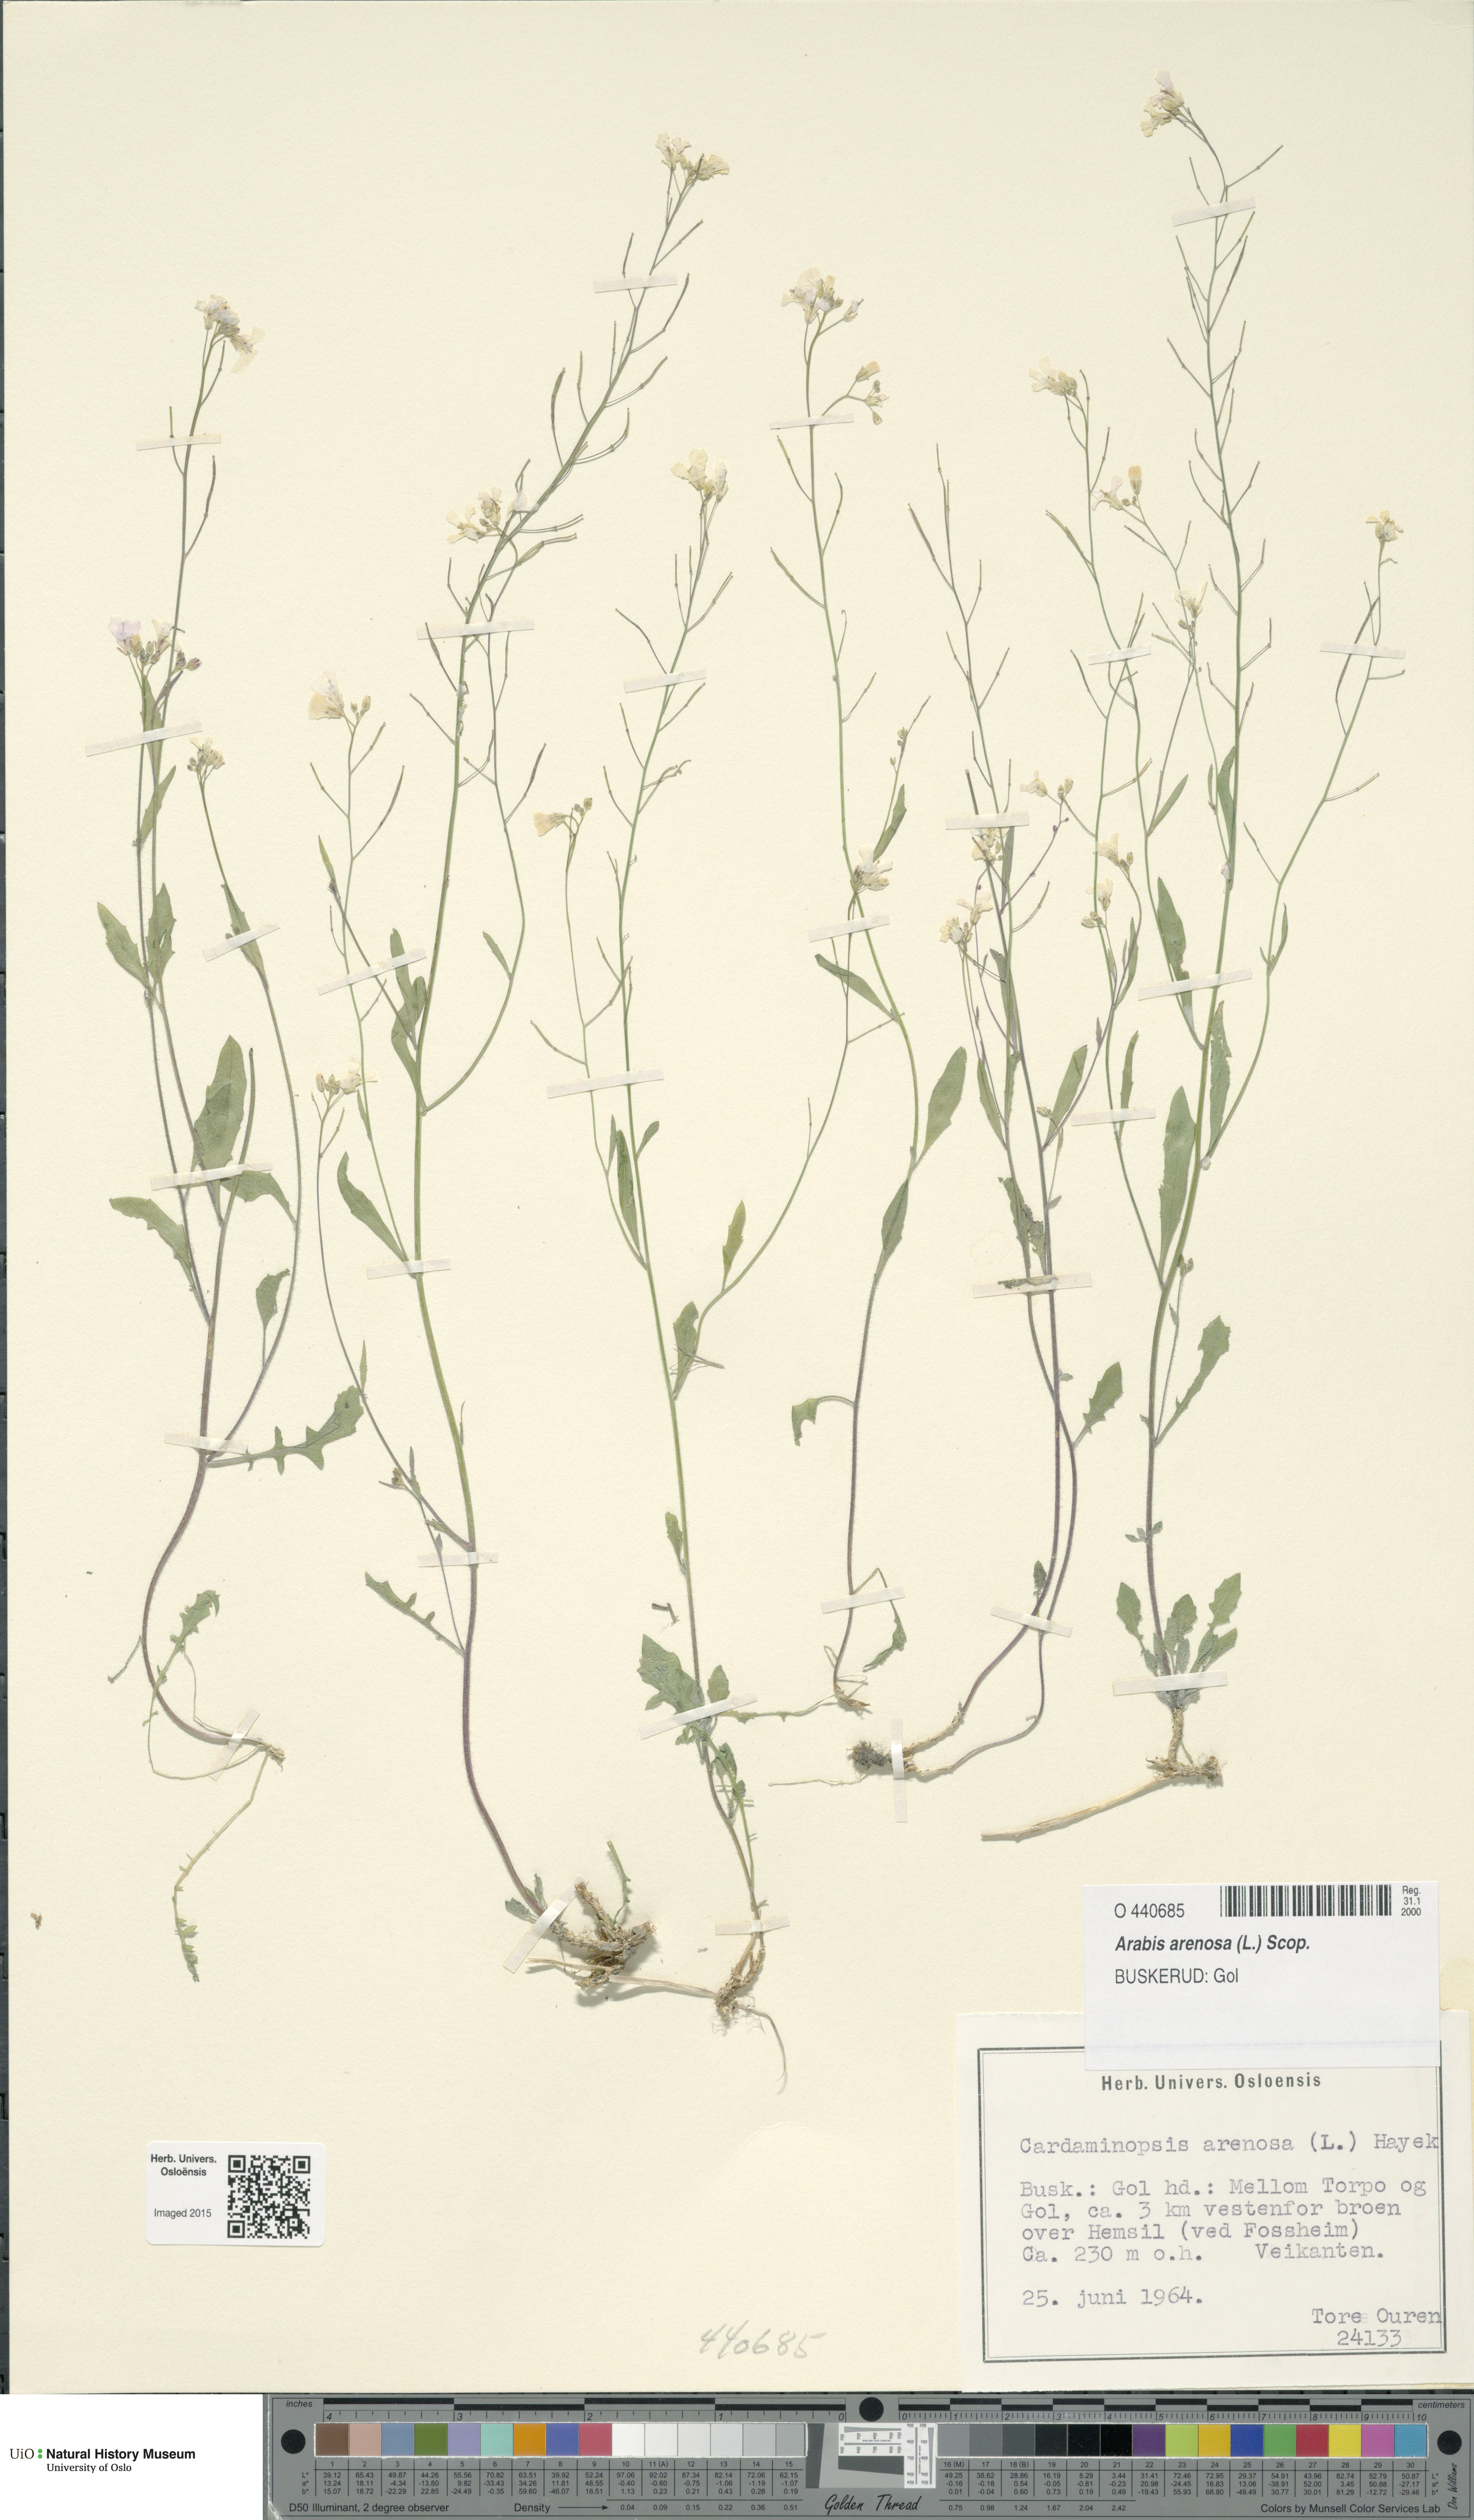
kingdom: Plantae
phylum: Tracheophyta
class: Magnoliopsida
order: Brassicales
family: Brassicaceae
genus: Arabidopsis
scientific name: Arabidopsis arenosa
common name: Sand rock-cress
